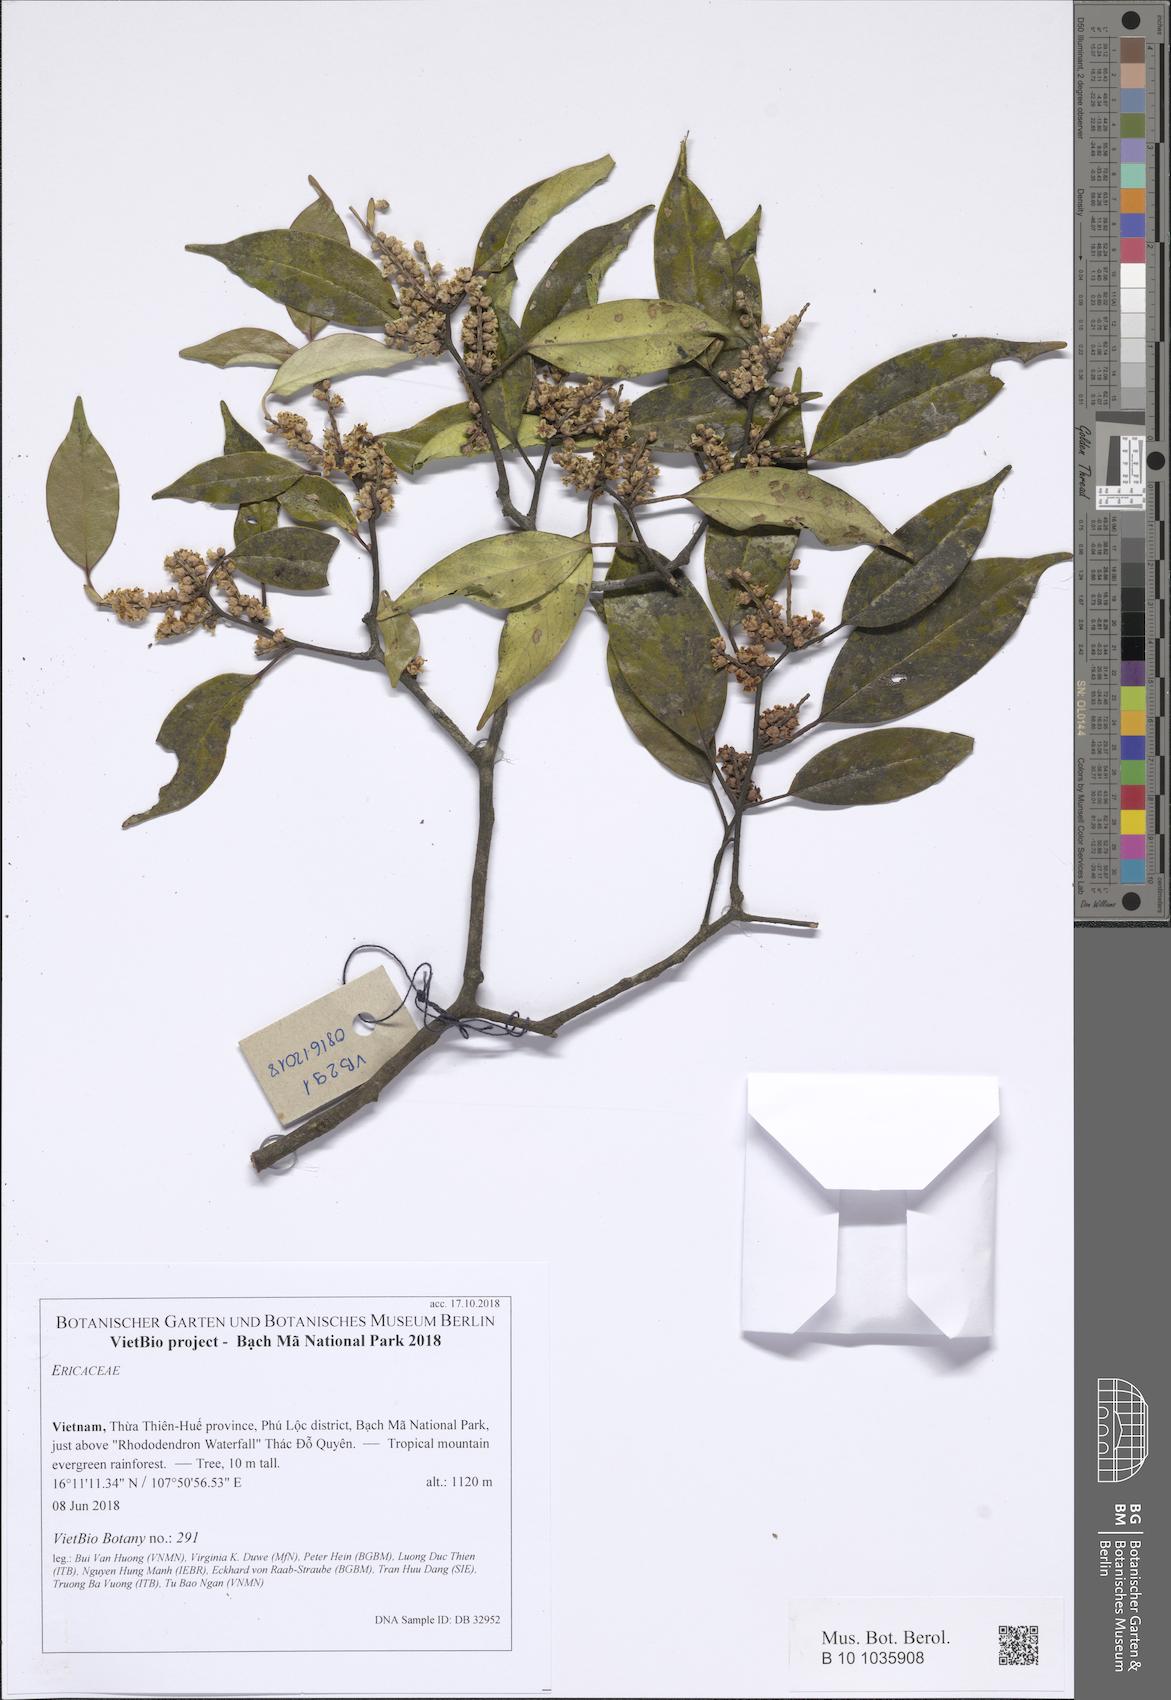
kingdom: Plantae
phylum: Tracheophyta
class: Magnoliopsida
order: Ericales
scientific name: Ericales
